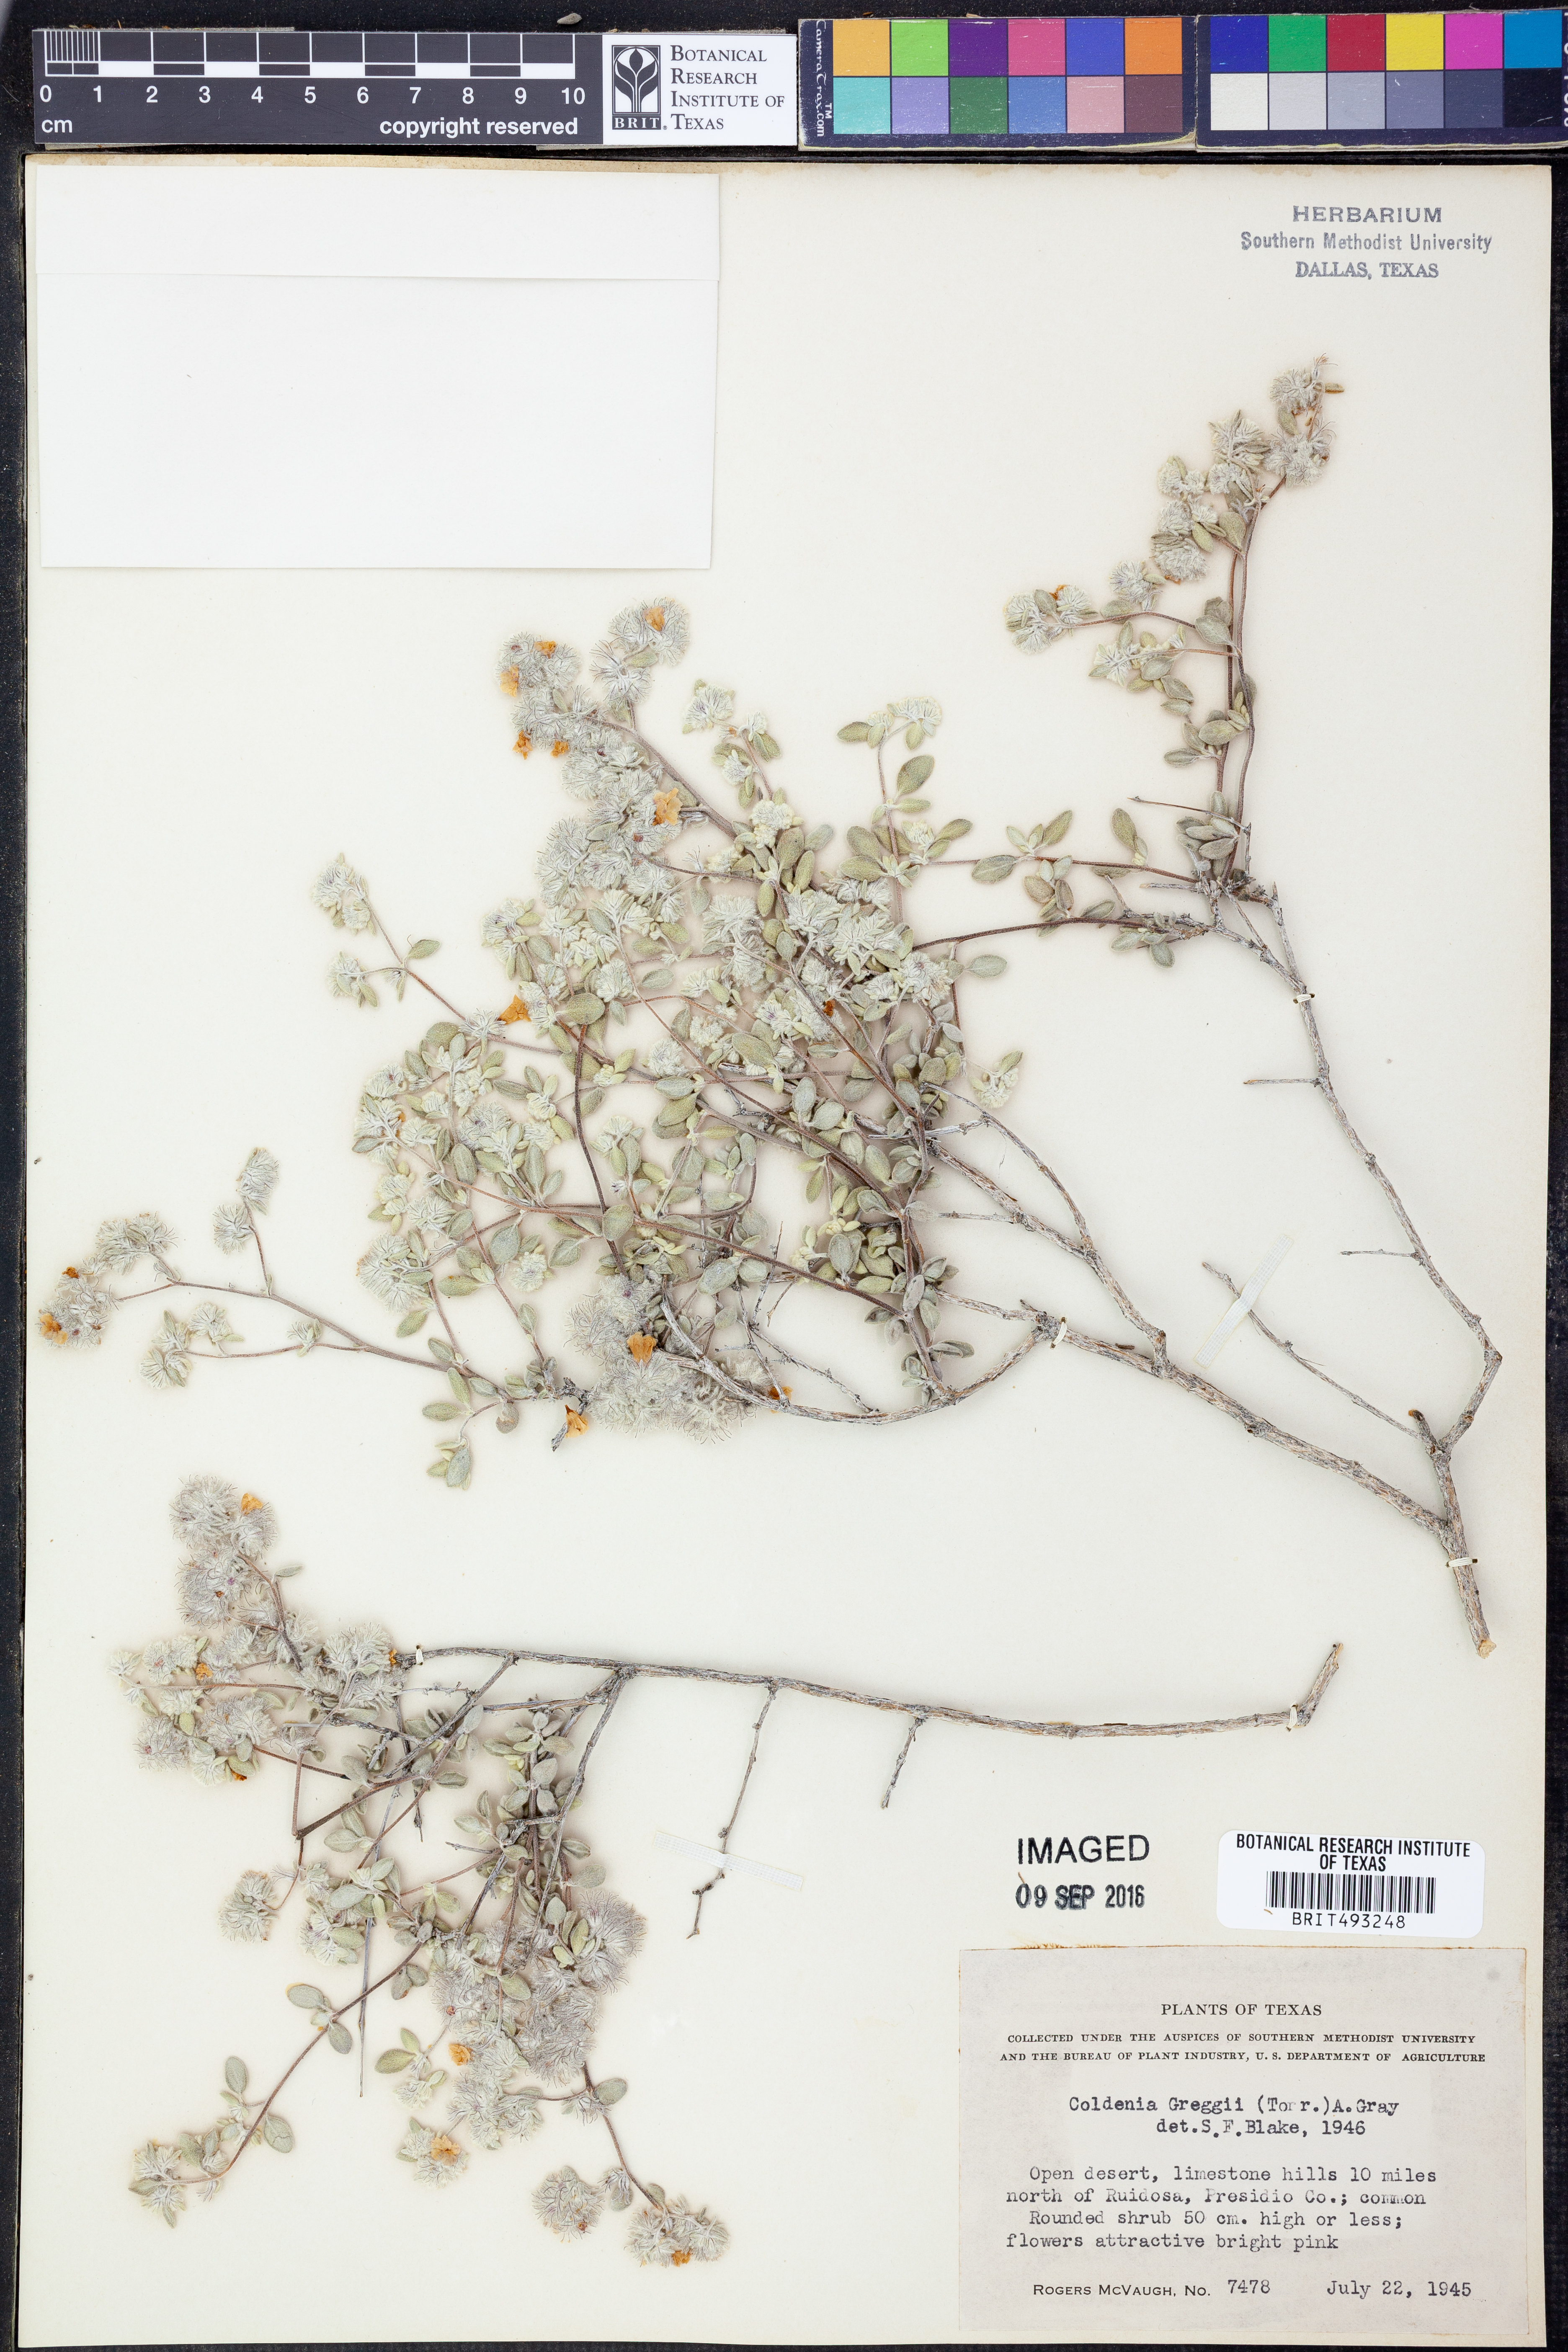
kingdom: Plantae
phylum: Tracheophyta
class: Magnoliopsida
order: Boraginales
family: Ehretiaceae
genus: Tiquilia
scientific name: Tiquilia greggii
